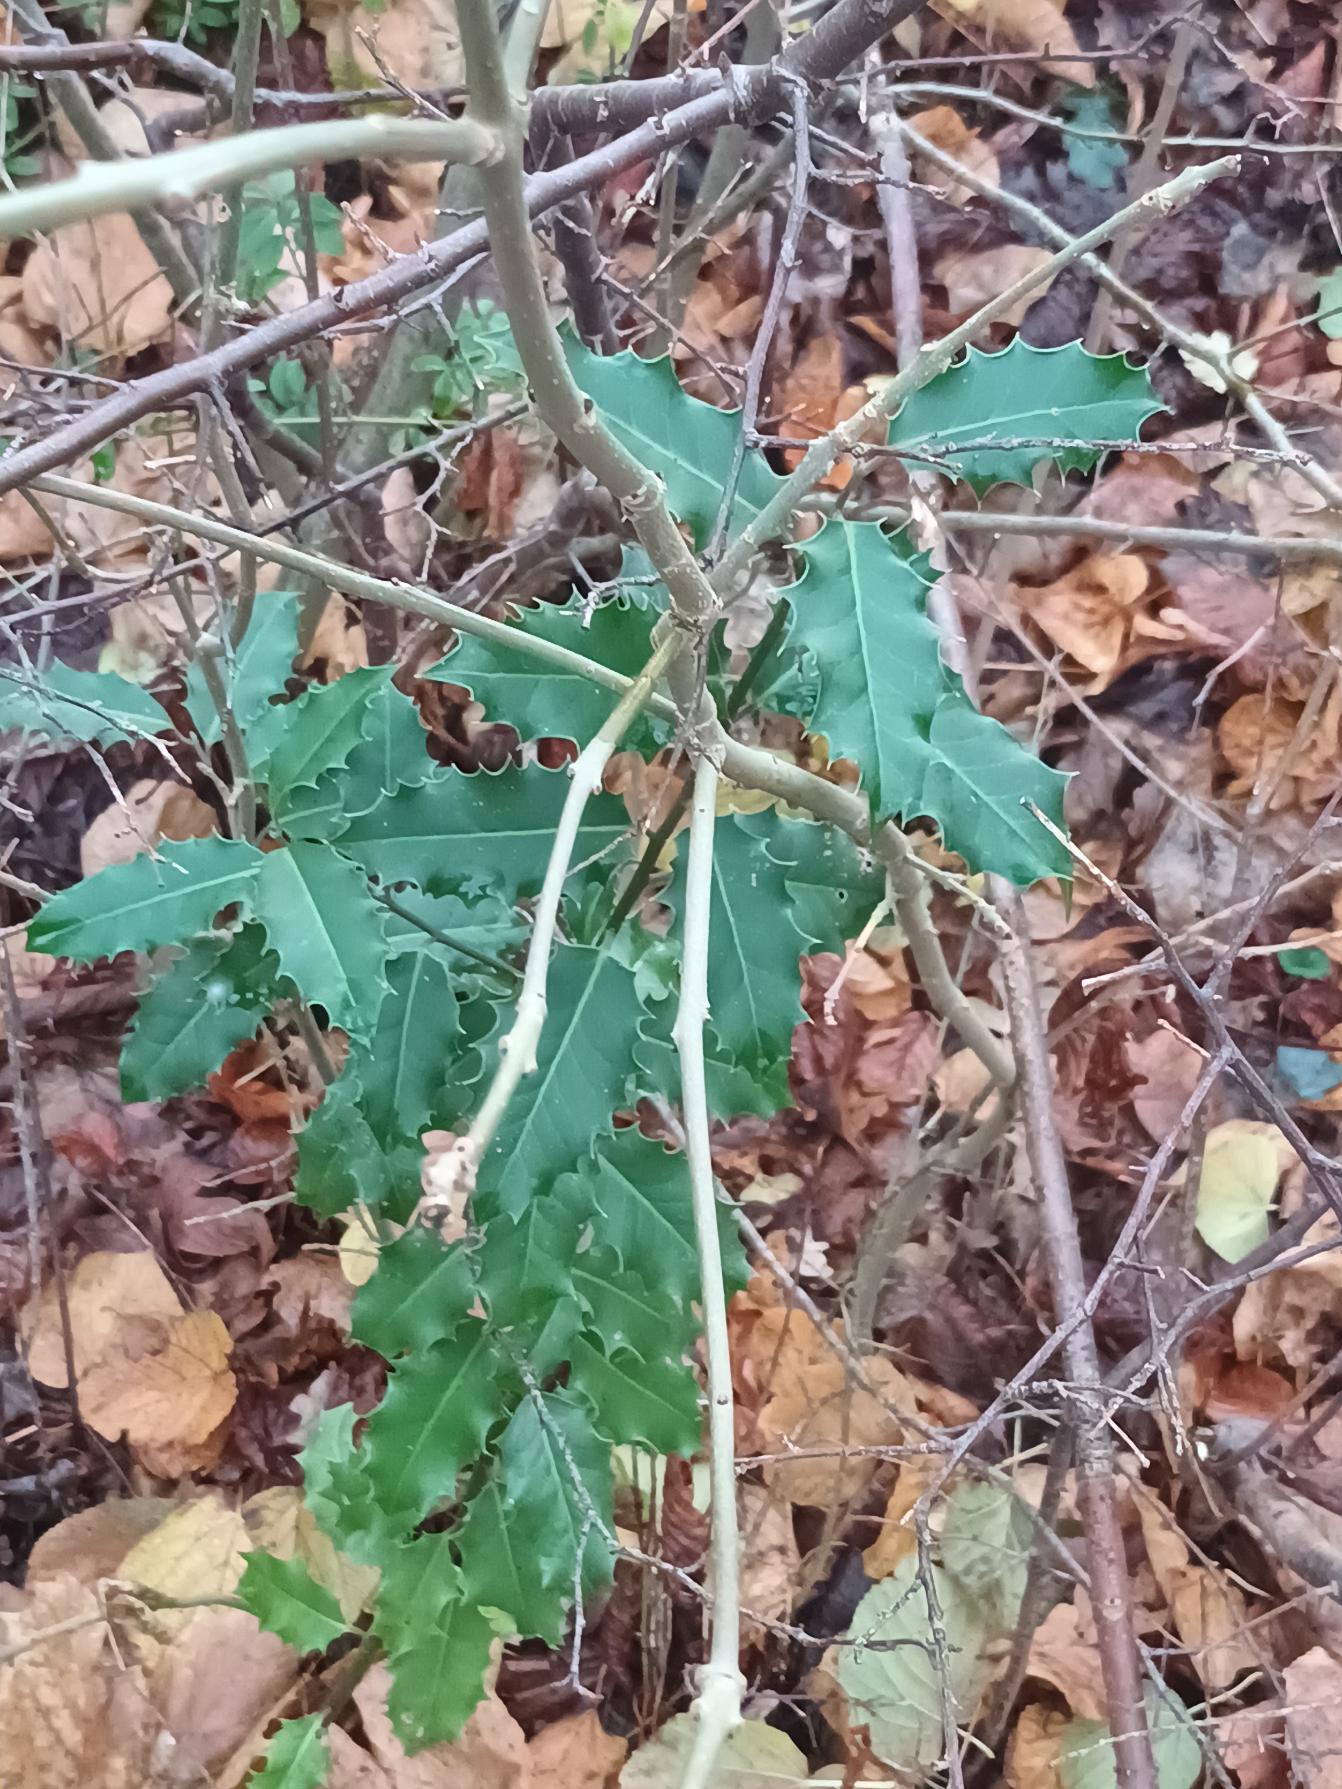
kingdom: Plantae
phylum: Tracheophyta
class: Magnoliopsida
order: Aquifoliales
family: Aquifoliaceae
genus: Ilex
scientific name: Ilex aquifolium
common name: Kristtorn
